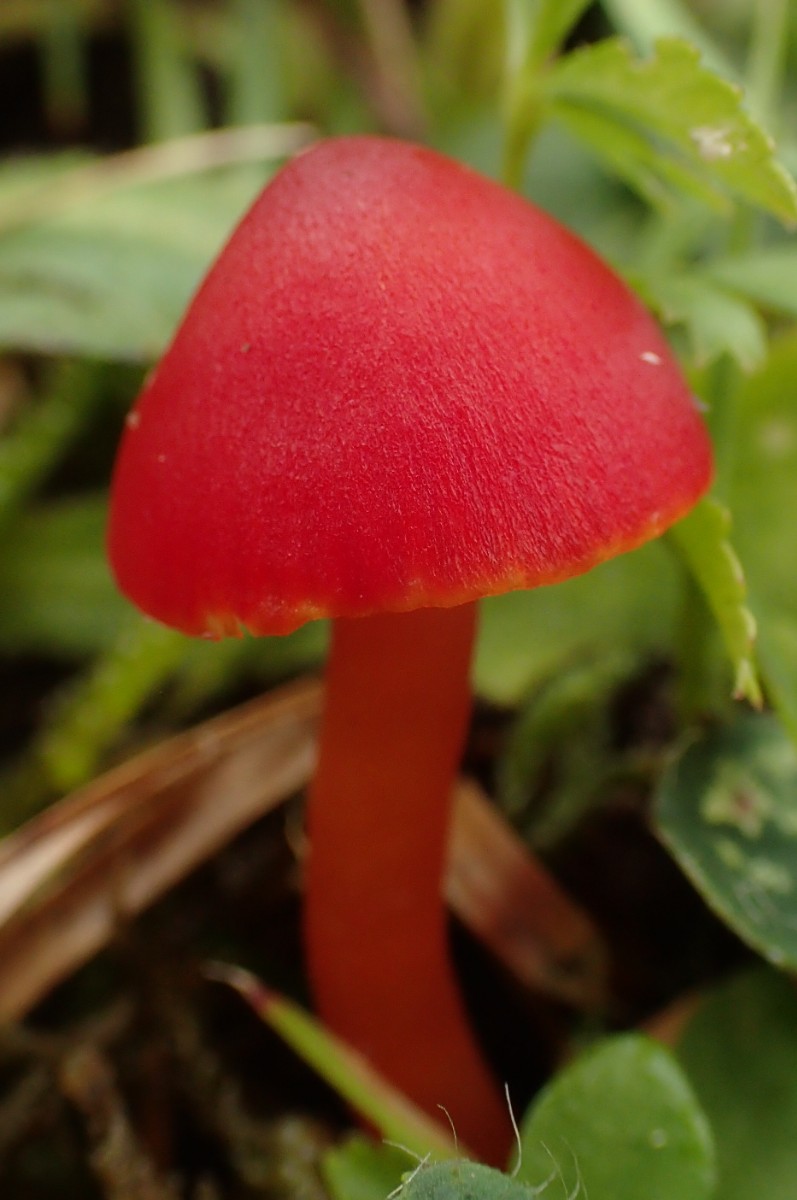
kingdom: Fungi
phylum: Basidiomycota
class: Agaricomycetes
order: Agaricales
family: Hygrophoraceae
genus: Hygrocybe
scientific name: Hygrocybe coccinea
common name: cinnober-vokshat
